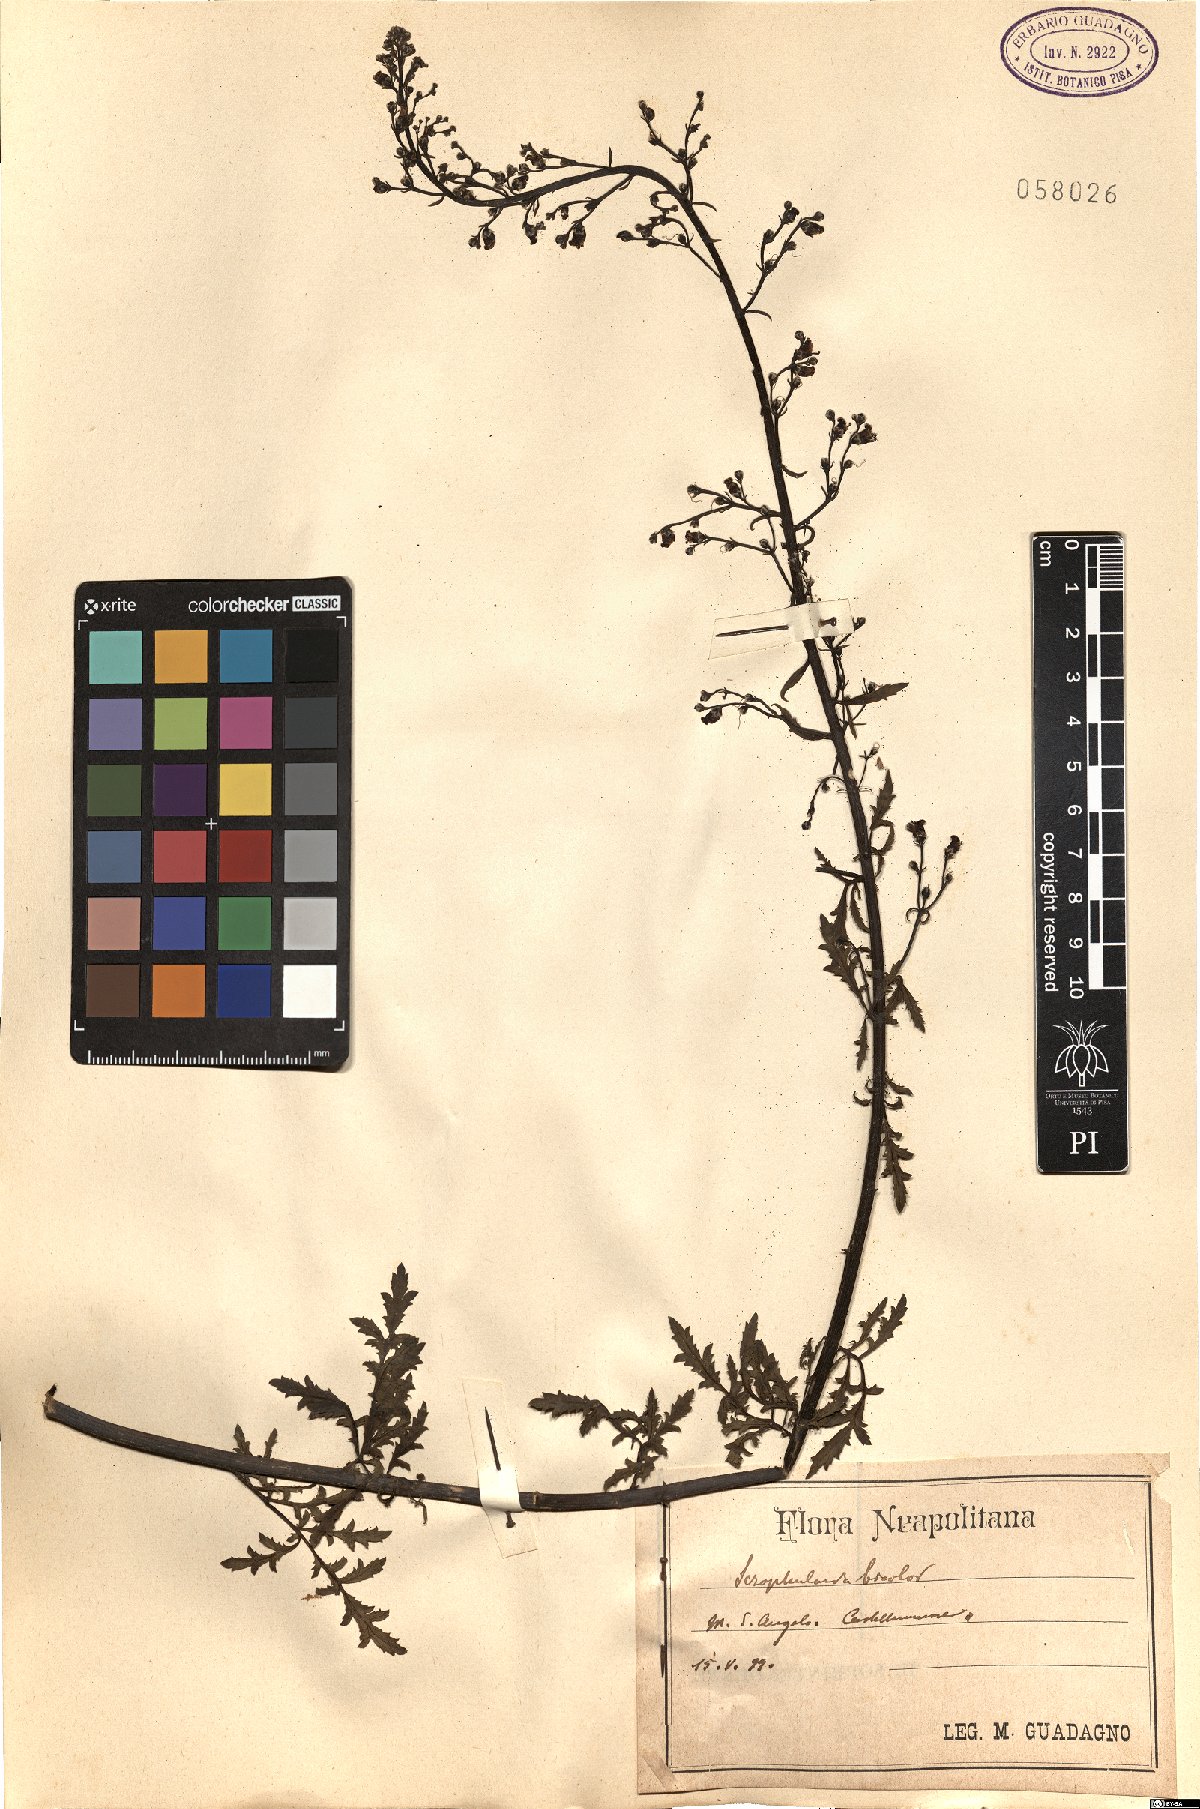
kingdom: Plantae
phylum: Tracheophyta
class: Magnoliopsida
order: Lamiales
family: Scrophulariaceae
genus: Scrophularia
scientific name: Scrophularia canina
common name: French figwort
